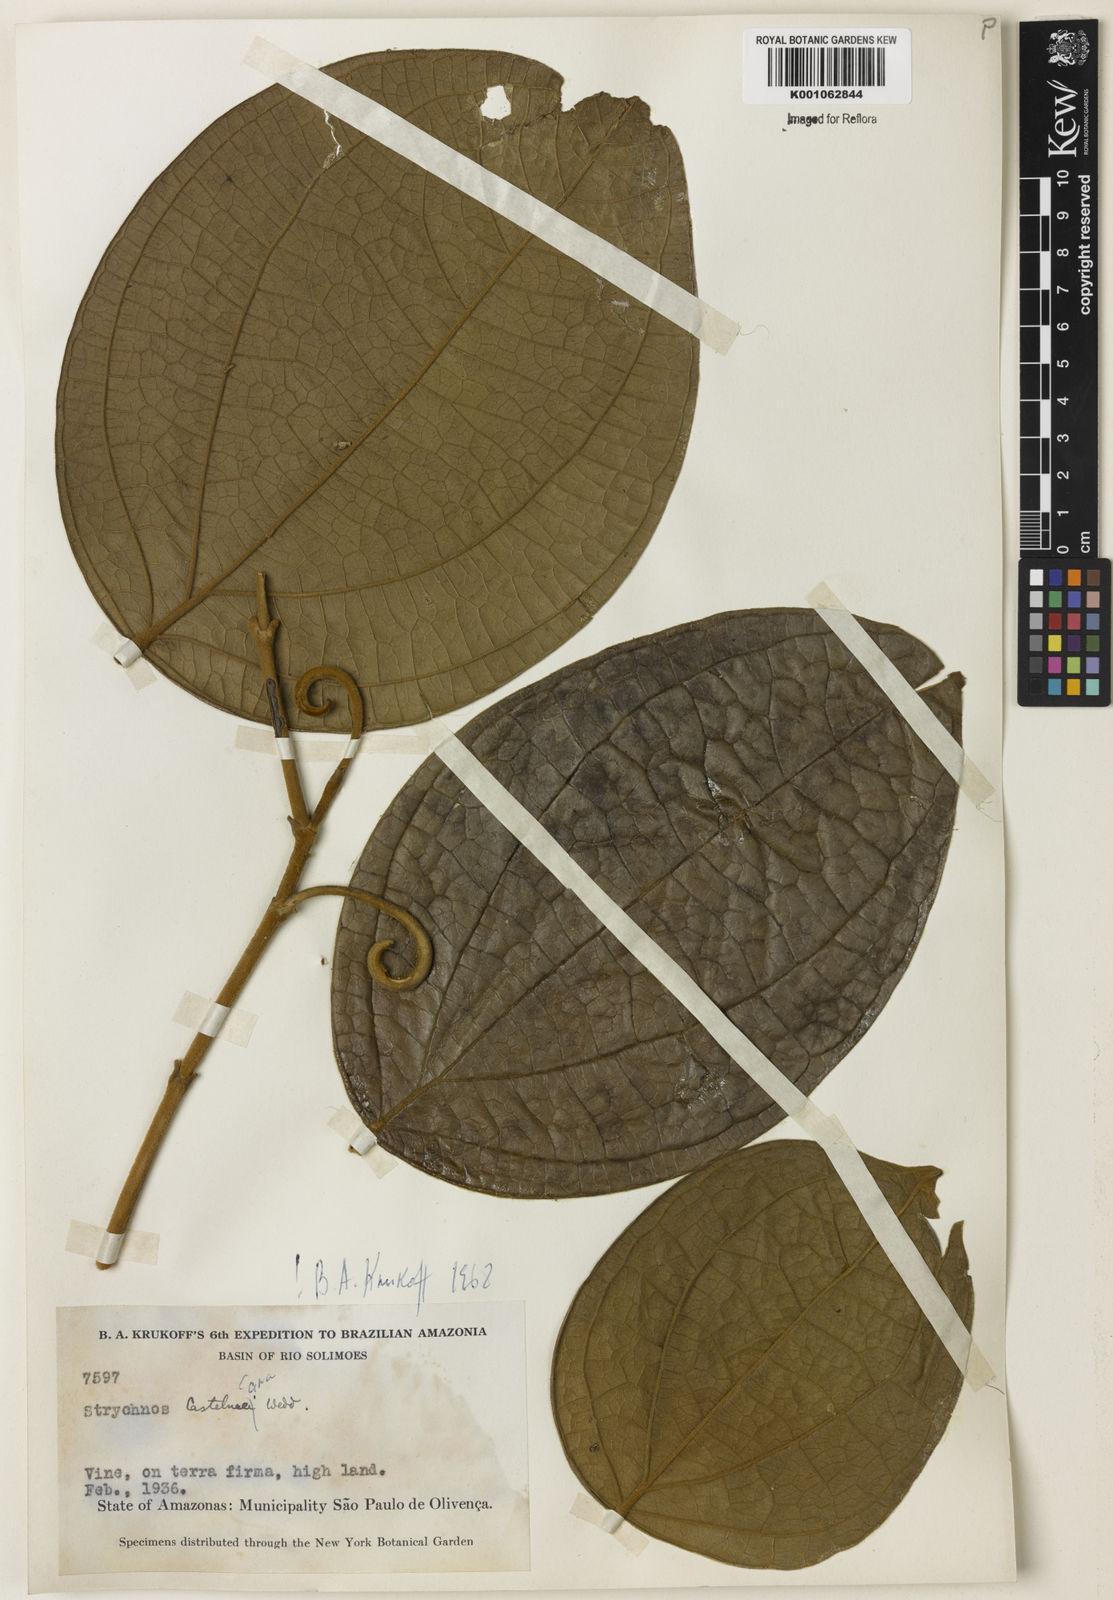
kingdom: Plantae
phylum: Tracheophyta
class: Magnoliopsida
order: Gentianales
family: Loganiaceae
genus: Strychnos
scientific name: Strychnos
